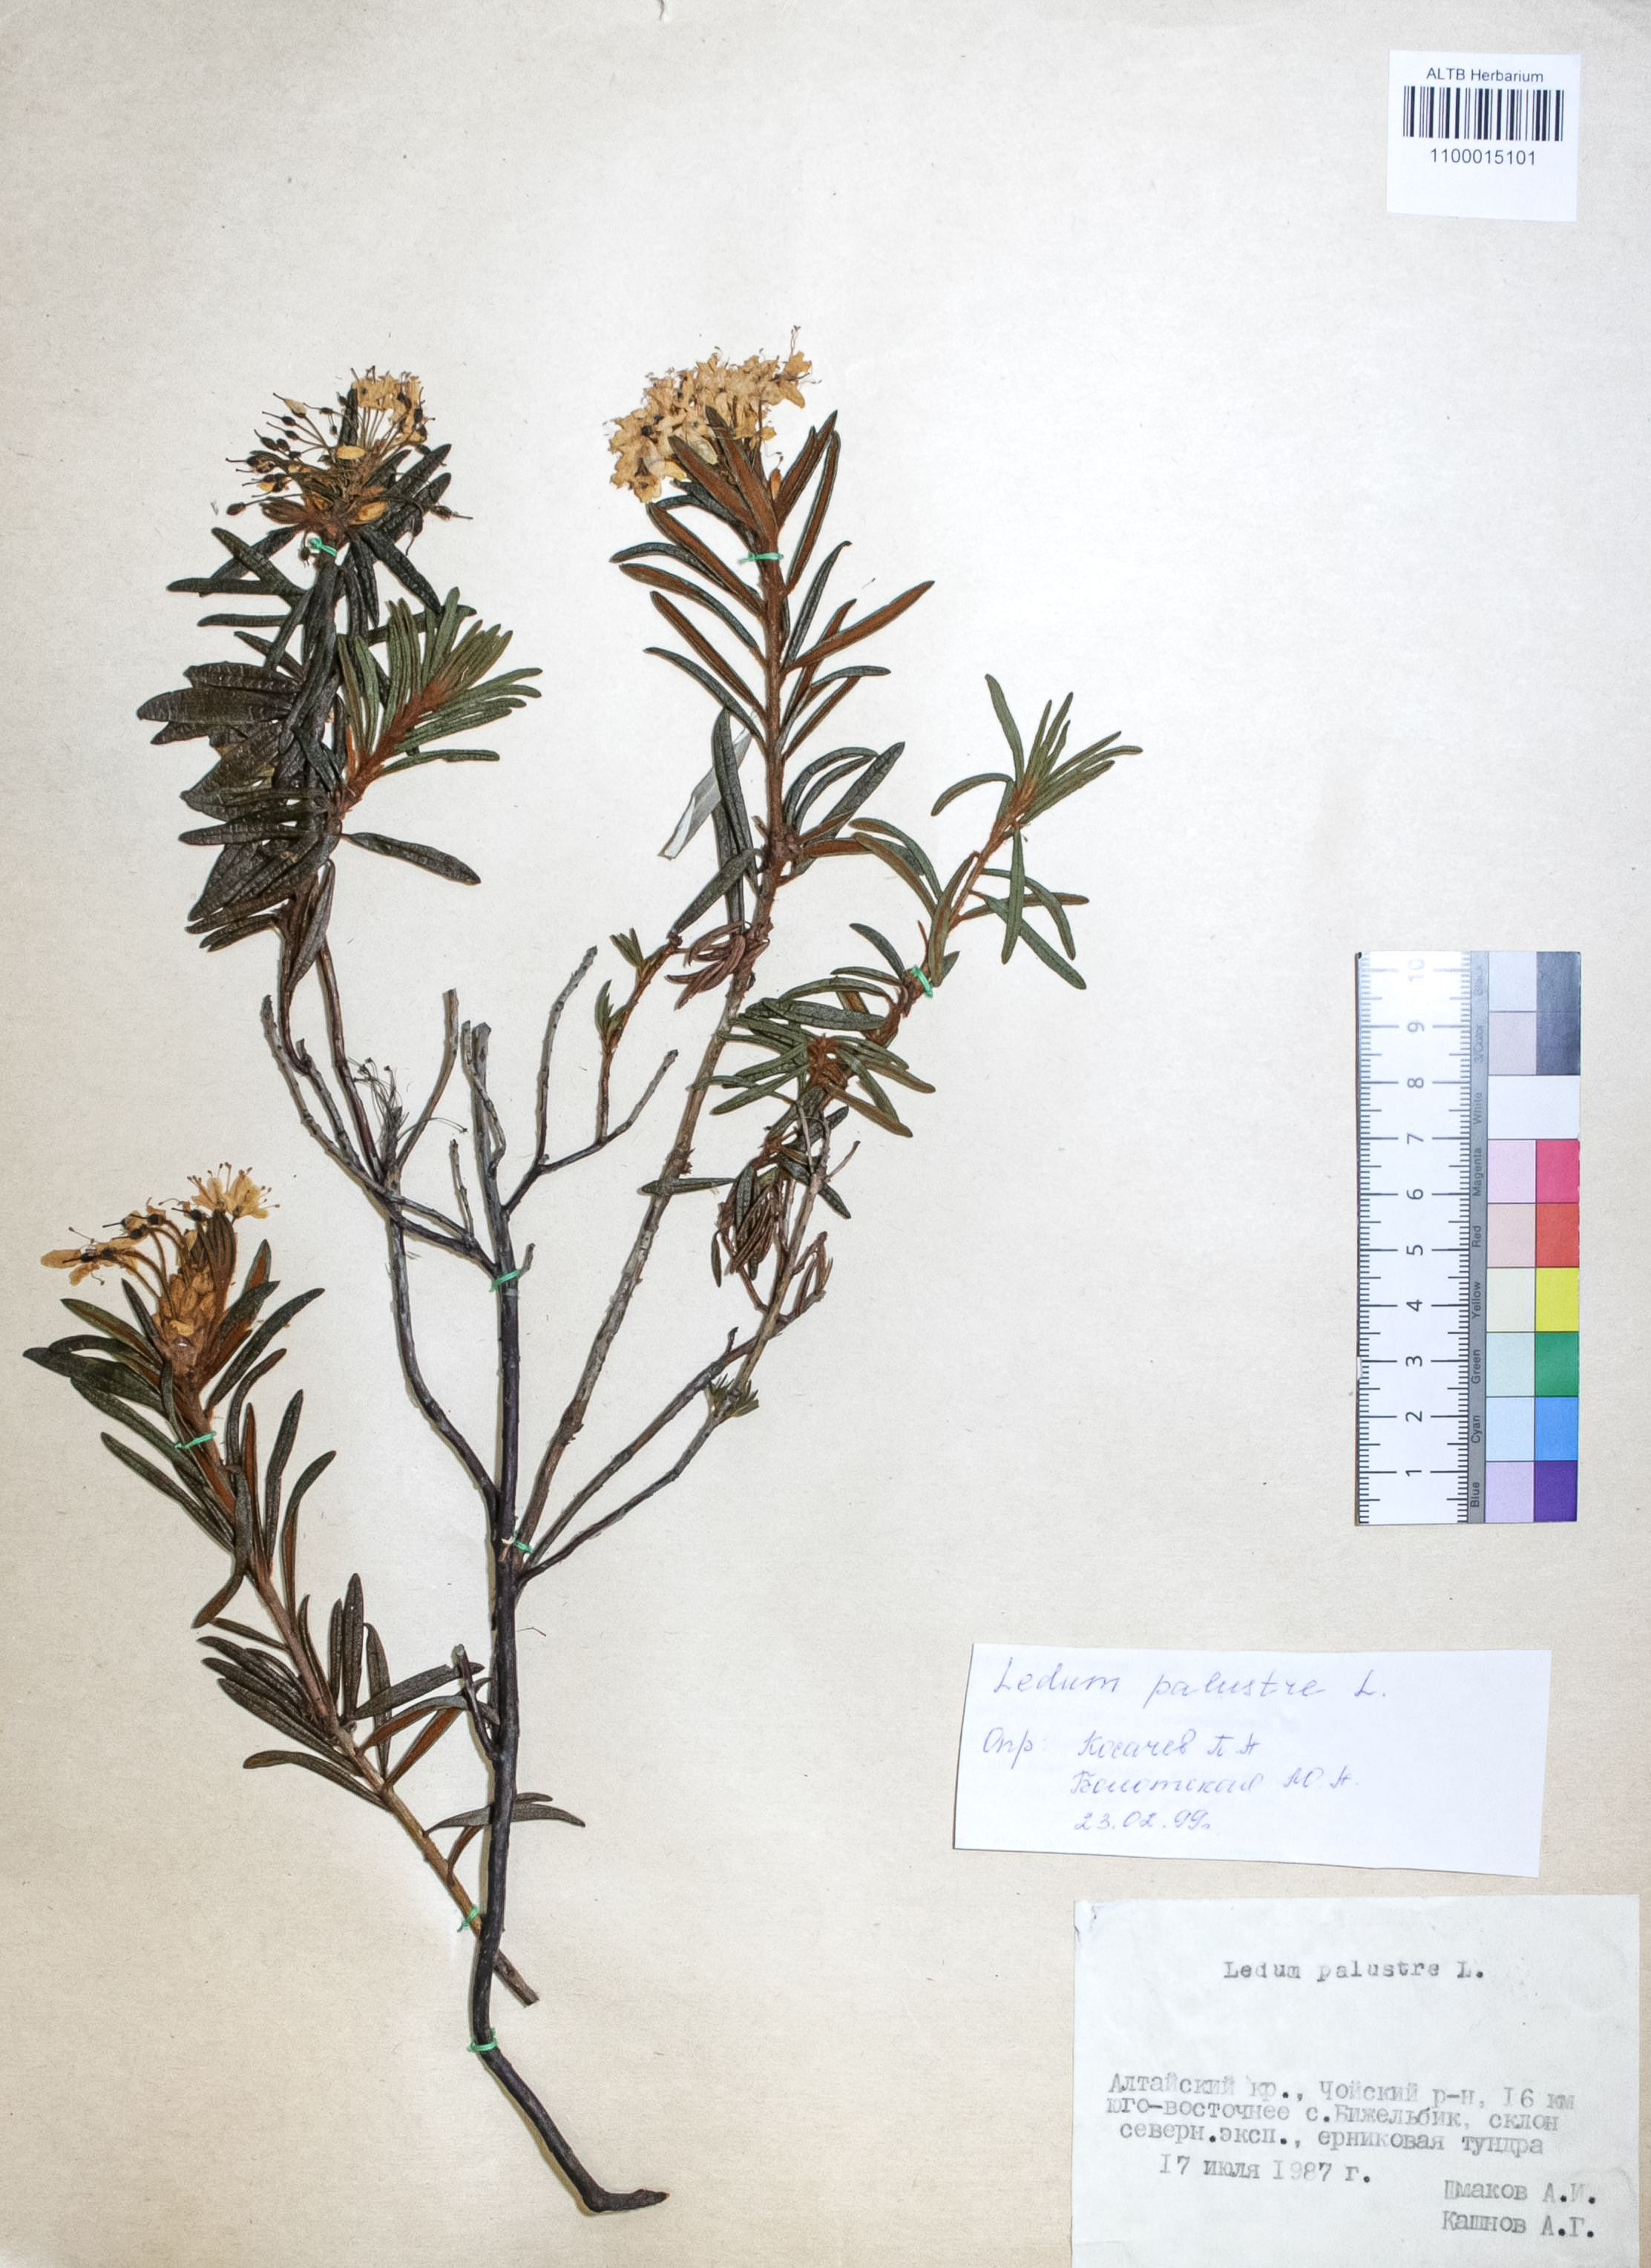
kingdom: Plantae
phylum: Tracheophyta
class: Magnoliopsida
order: Ericales
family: Ericaceae
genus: Rhododendron
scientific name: Rhododendron tomentosum
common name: Marsh labrador tea
